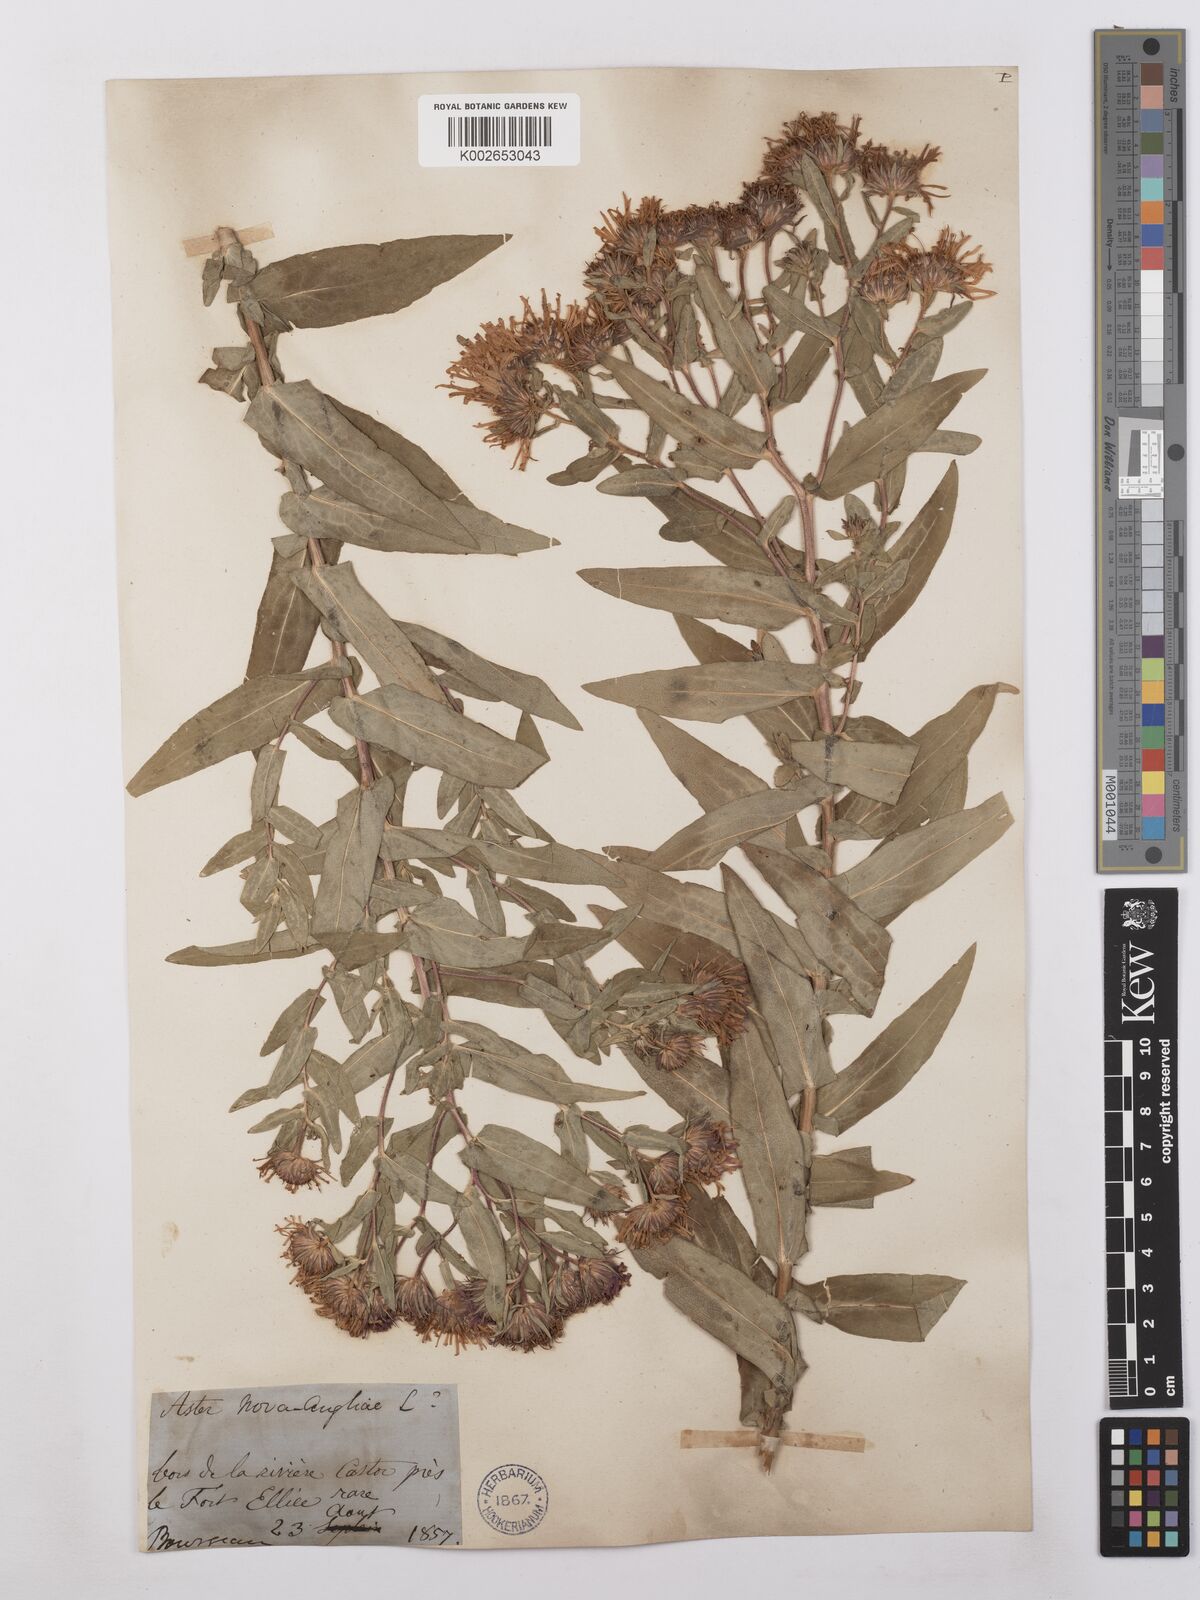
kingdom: Plantae
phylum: Tracheophyta
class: Magnoliopsida
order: Asterales
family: Asteraceae
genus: Symphyotrichum
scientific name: Symphyotrichum novae-angliae
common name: Michaelmas daisy
